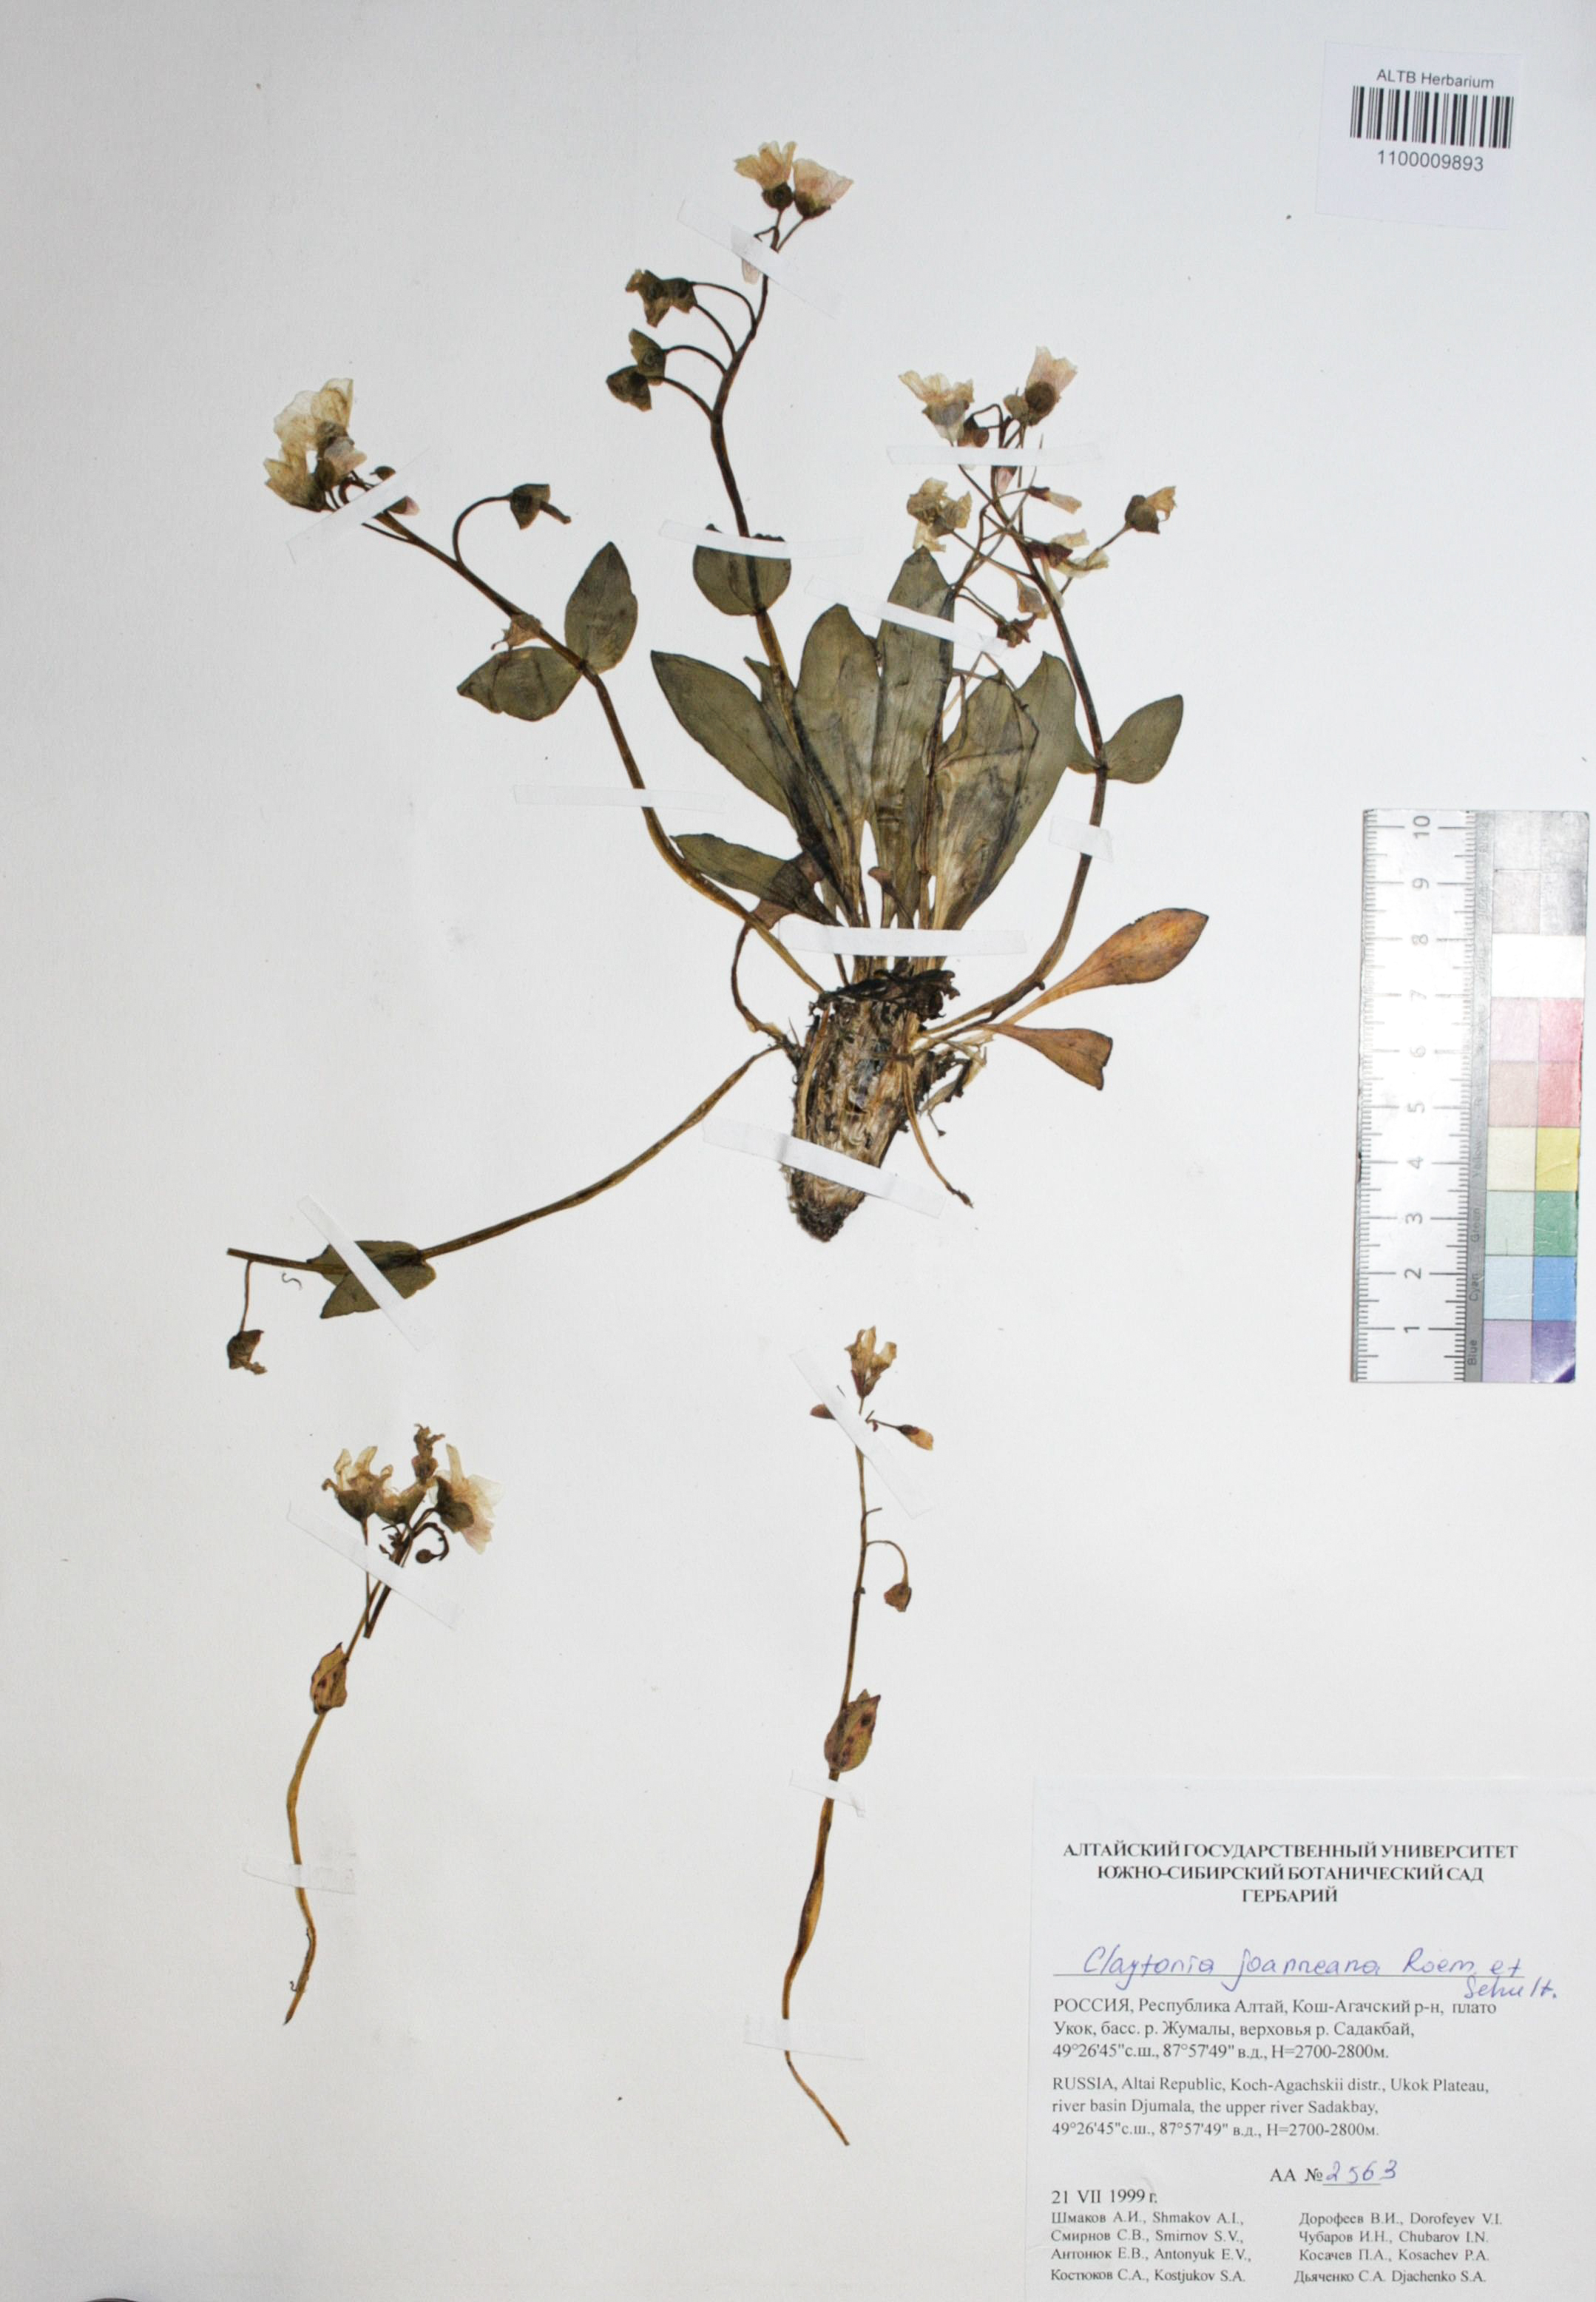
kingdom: Plantae
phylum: Tracheophyta
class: Magnoliopsida
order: Caryophyllales
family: Montiaceae
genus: Claytonia
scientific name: Claytonia joanneana
